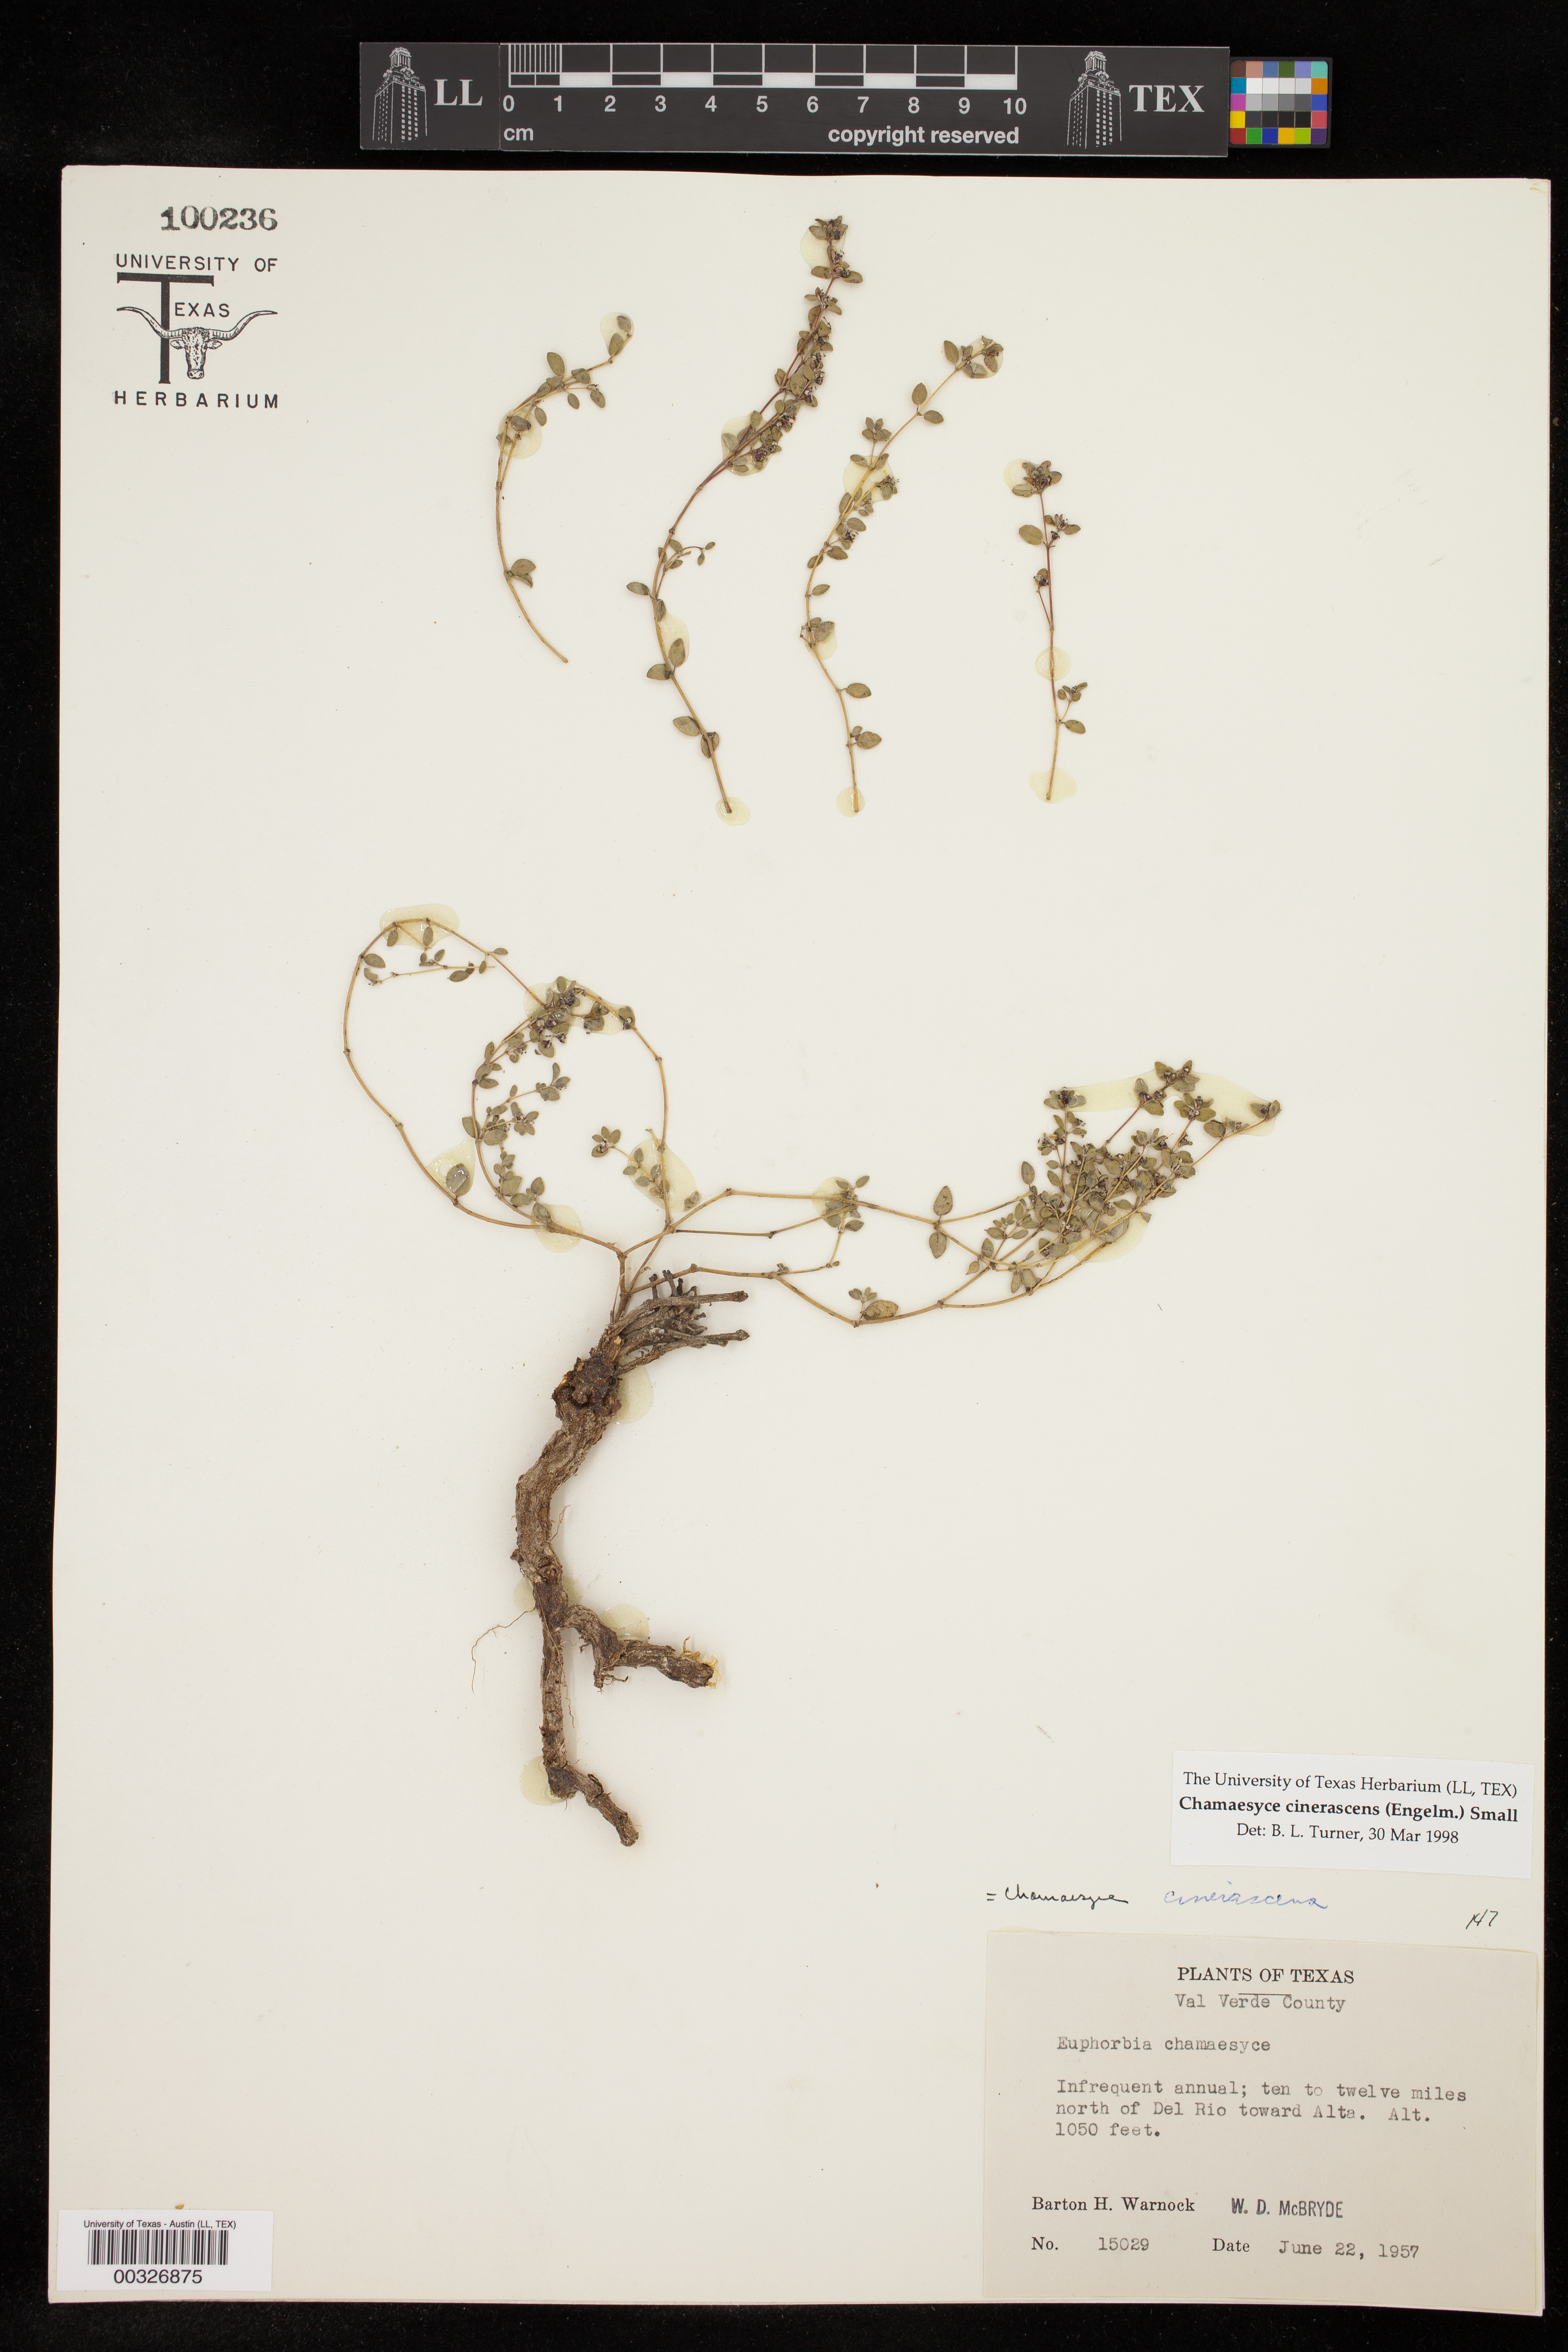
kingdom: Plantae
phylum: Tracheophyta
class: Magnoliopsida
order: Malpighiales
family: Euphorbiaceae
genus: Euphorbia
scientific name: Euphorbia cinerascens
